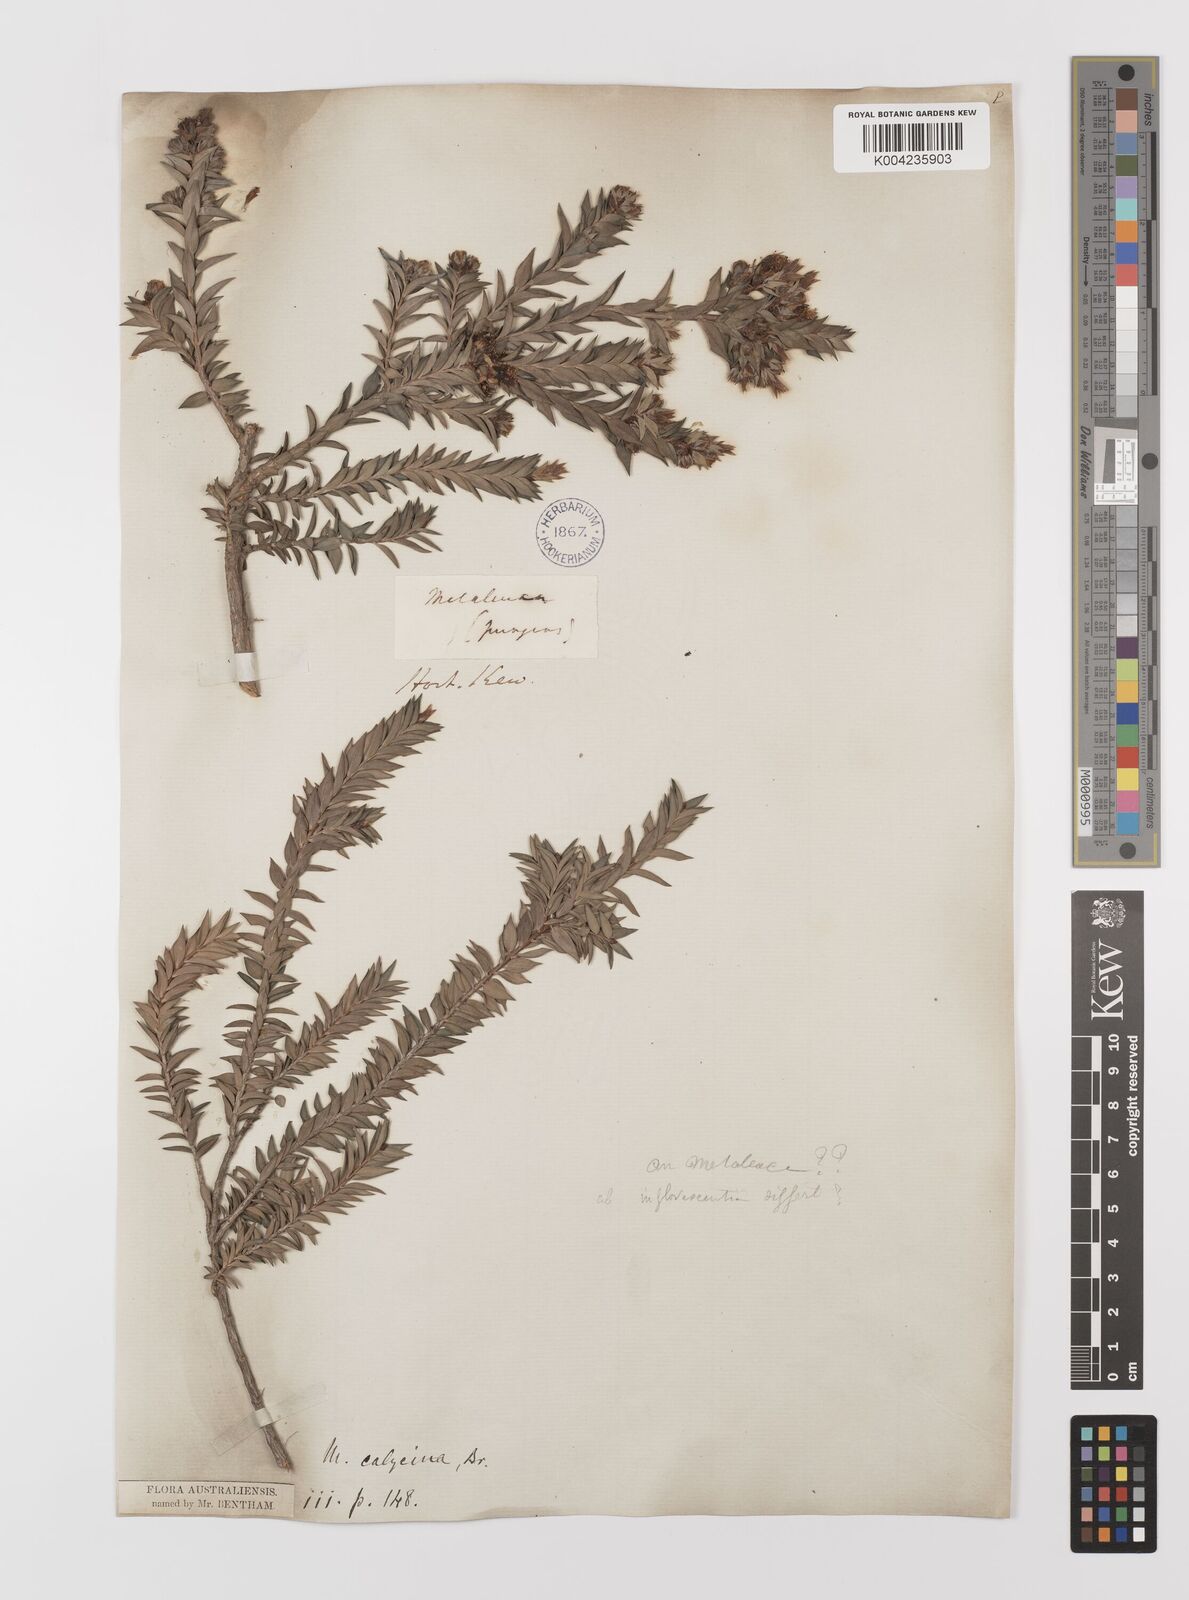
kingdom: Plantae
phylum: Tracheophyta
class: Magnoliopsida
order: Myrtales
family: Myrtaceae
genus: Melaleuca
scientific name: Melaleuca calycina
